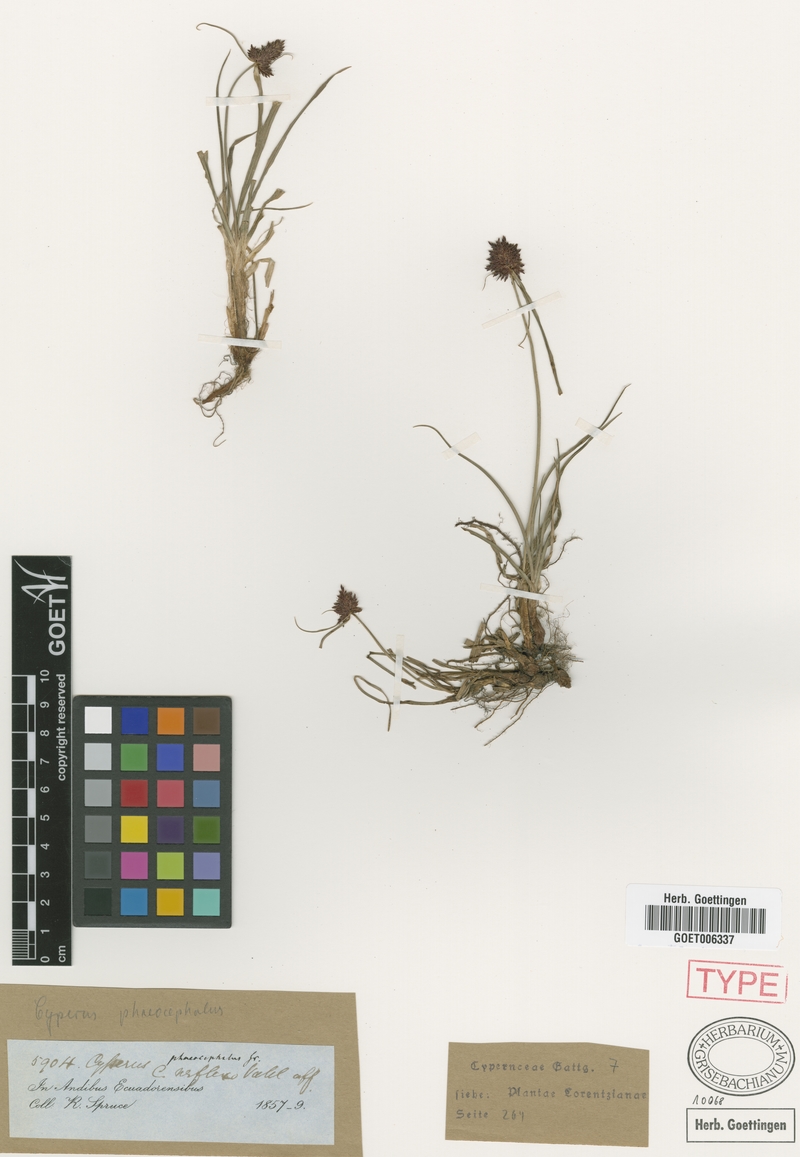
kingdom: Plantae
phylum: Tracheophyta
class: Liliopsida
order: Poales
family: Cyperaceae
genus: Cyperus
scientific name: Cyperus manimae
